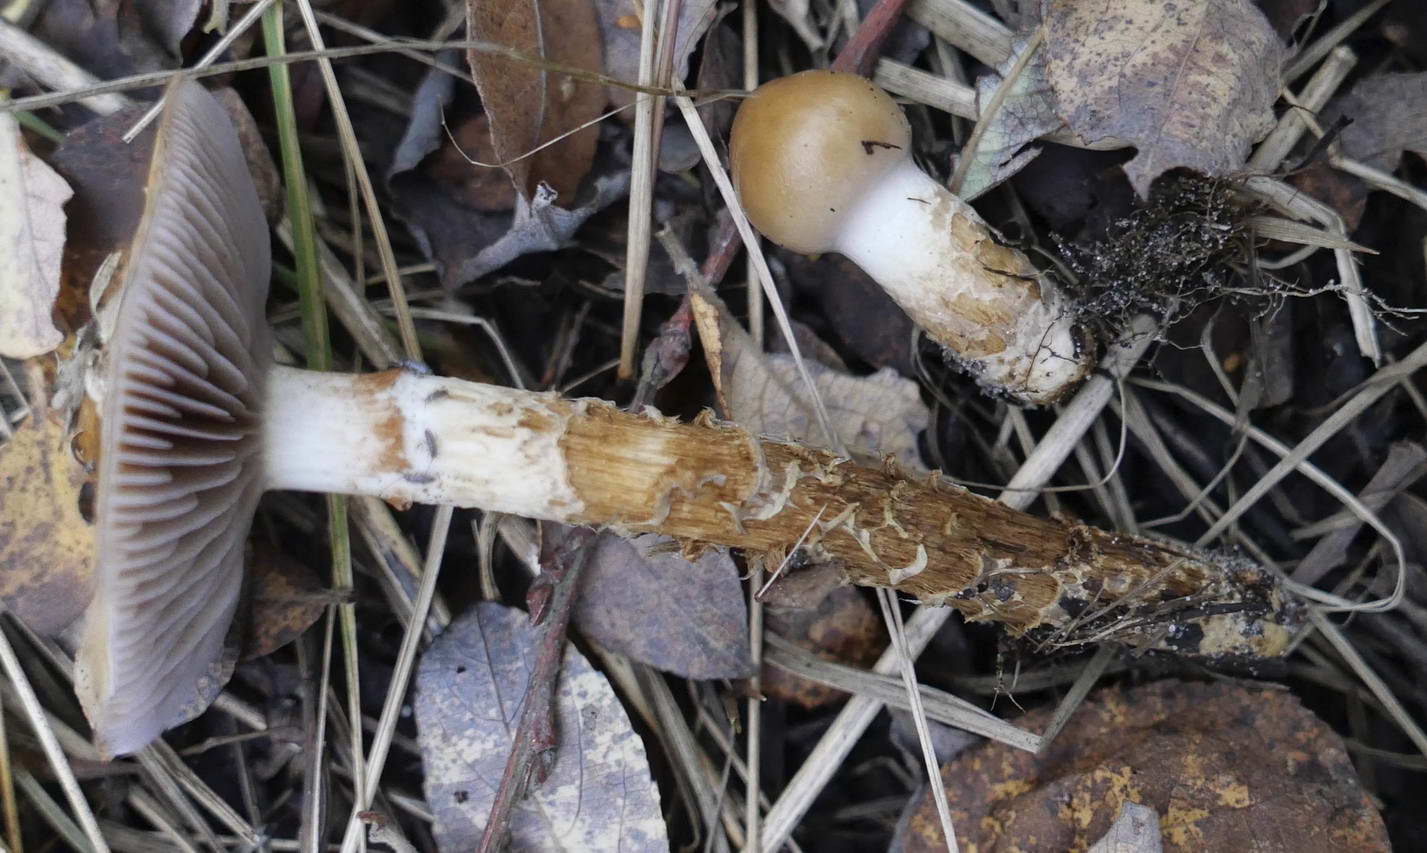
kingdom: Fungi
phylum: Basidiomycota
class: Agaricomycetes
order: Agaricales
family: Cortinariaceae
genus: Cortinarius
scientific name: Cortinarius trivialis
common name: brunslimet slørhat
